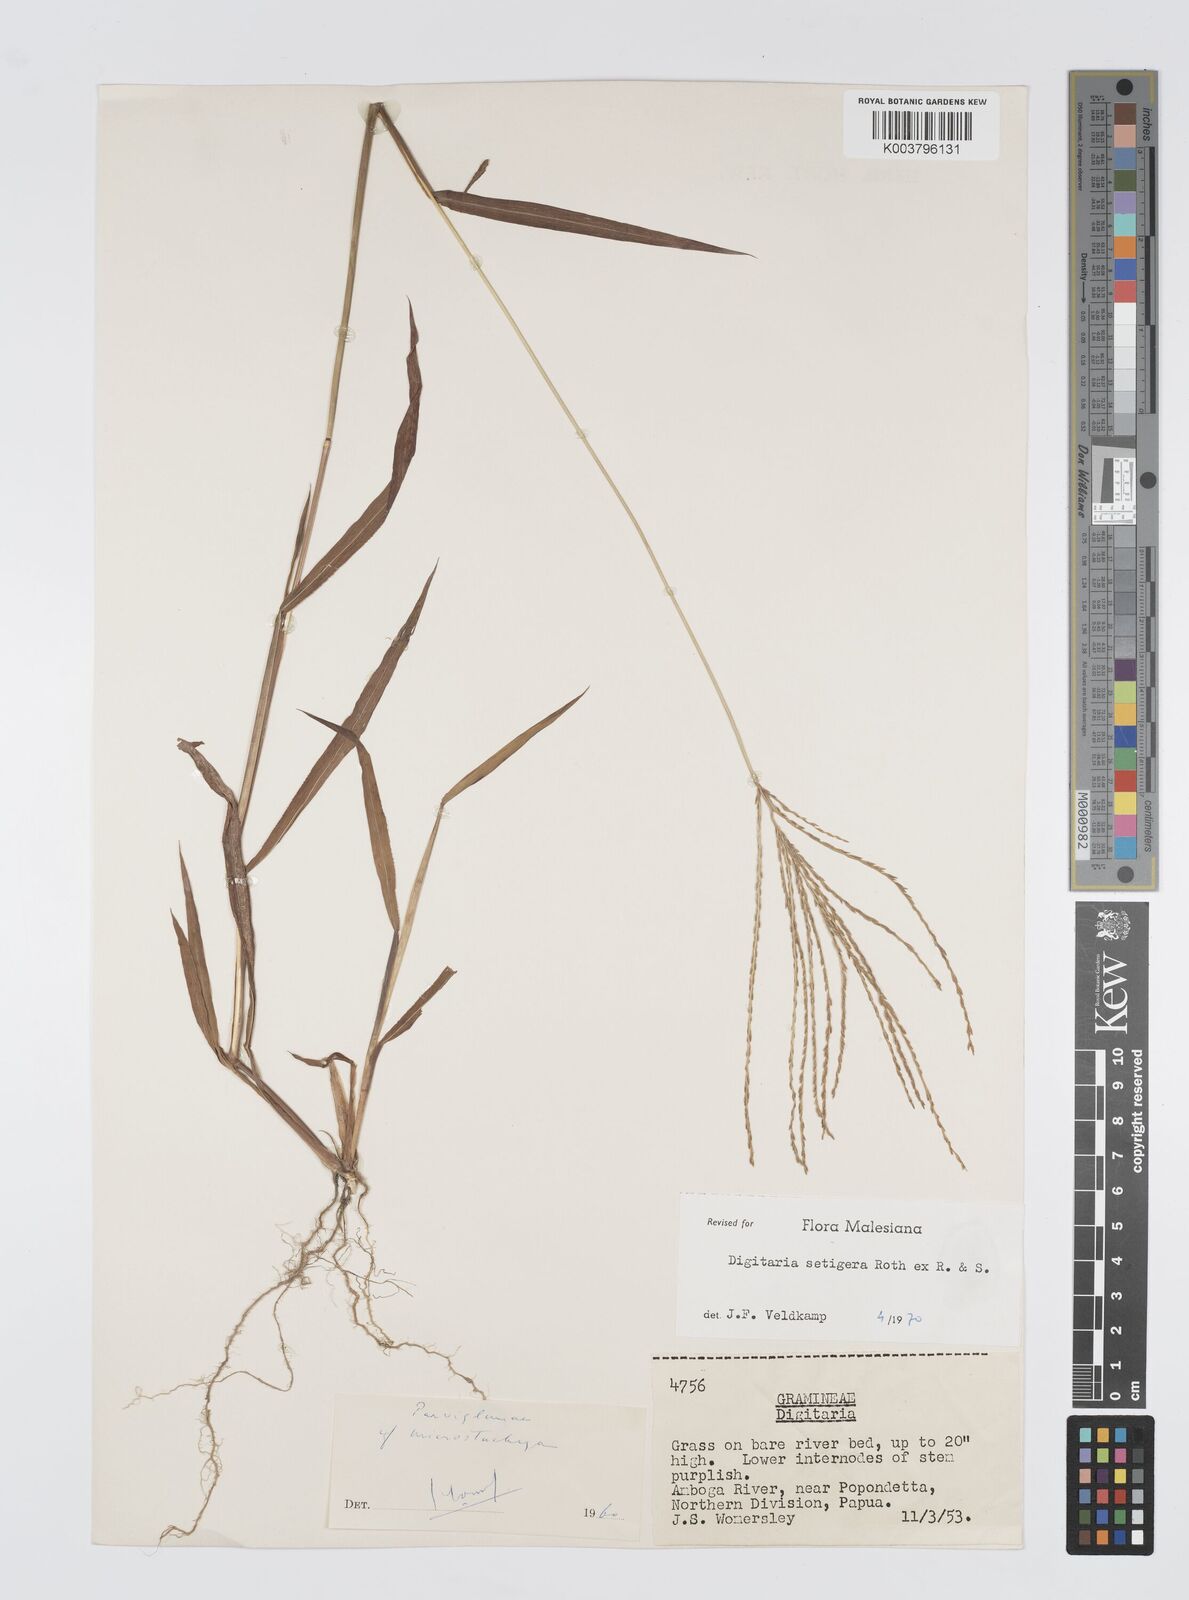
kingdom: Plantae
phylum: Tracheophyta
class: Liliopsida
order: Poales
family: Poaceae
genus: Digitaria
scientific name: Digitaria setigera
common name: East indian crabgrass
